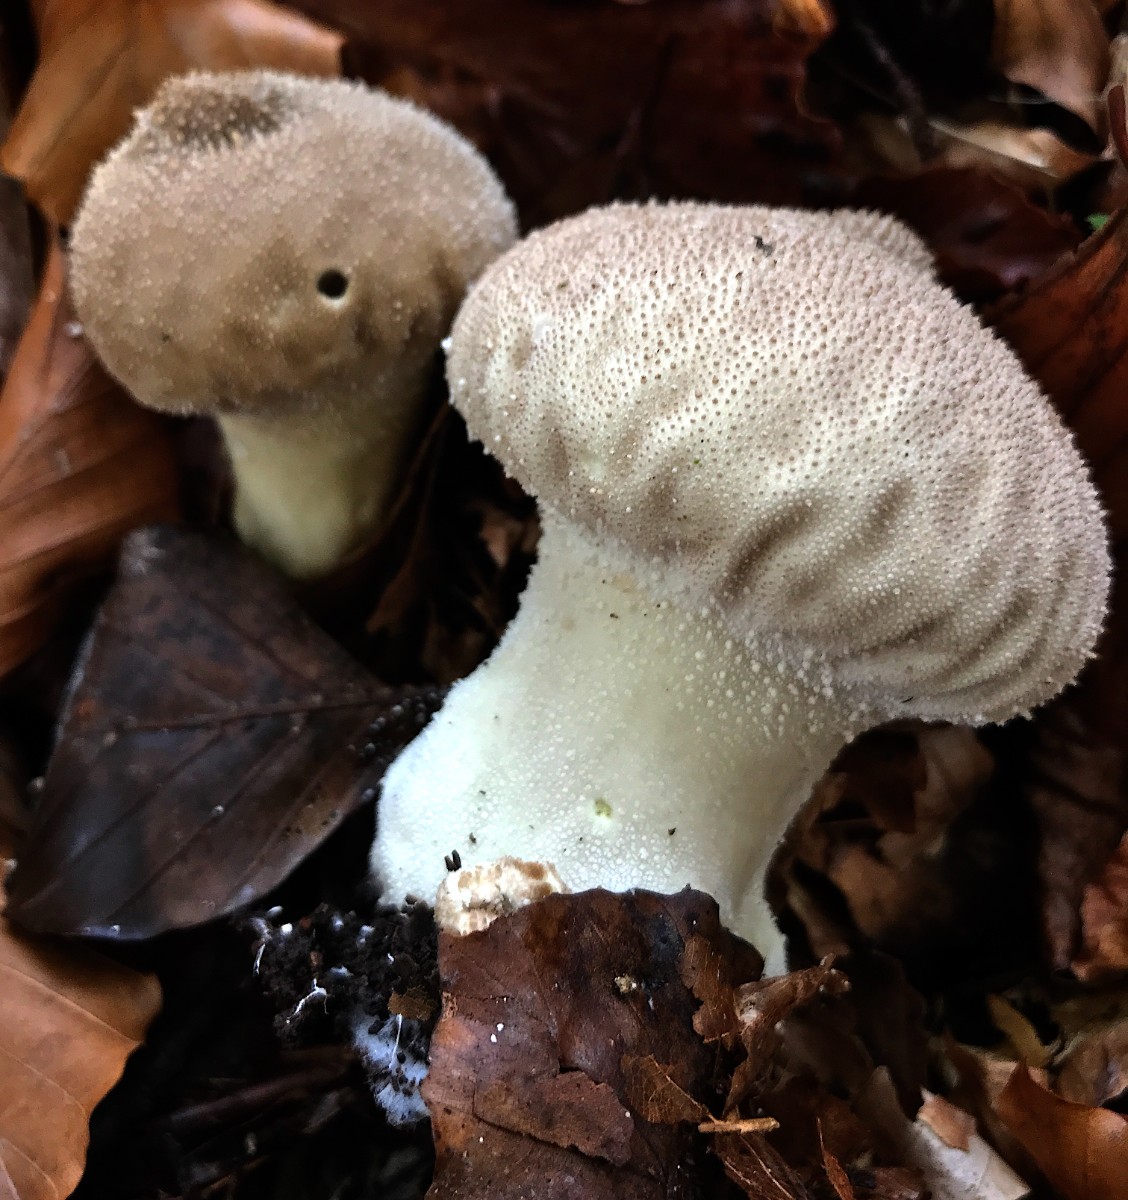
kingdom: Fungi
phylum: Basidiomycota
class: Agaricomycetes
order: Agaricales
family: Lycoperdaceae
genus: Lycoperdon
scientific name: Lycoperdon perlatum
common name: krystal-støvbold
